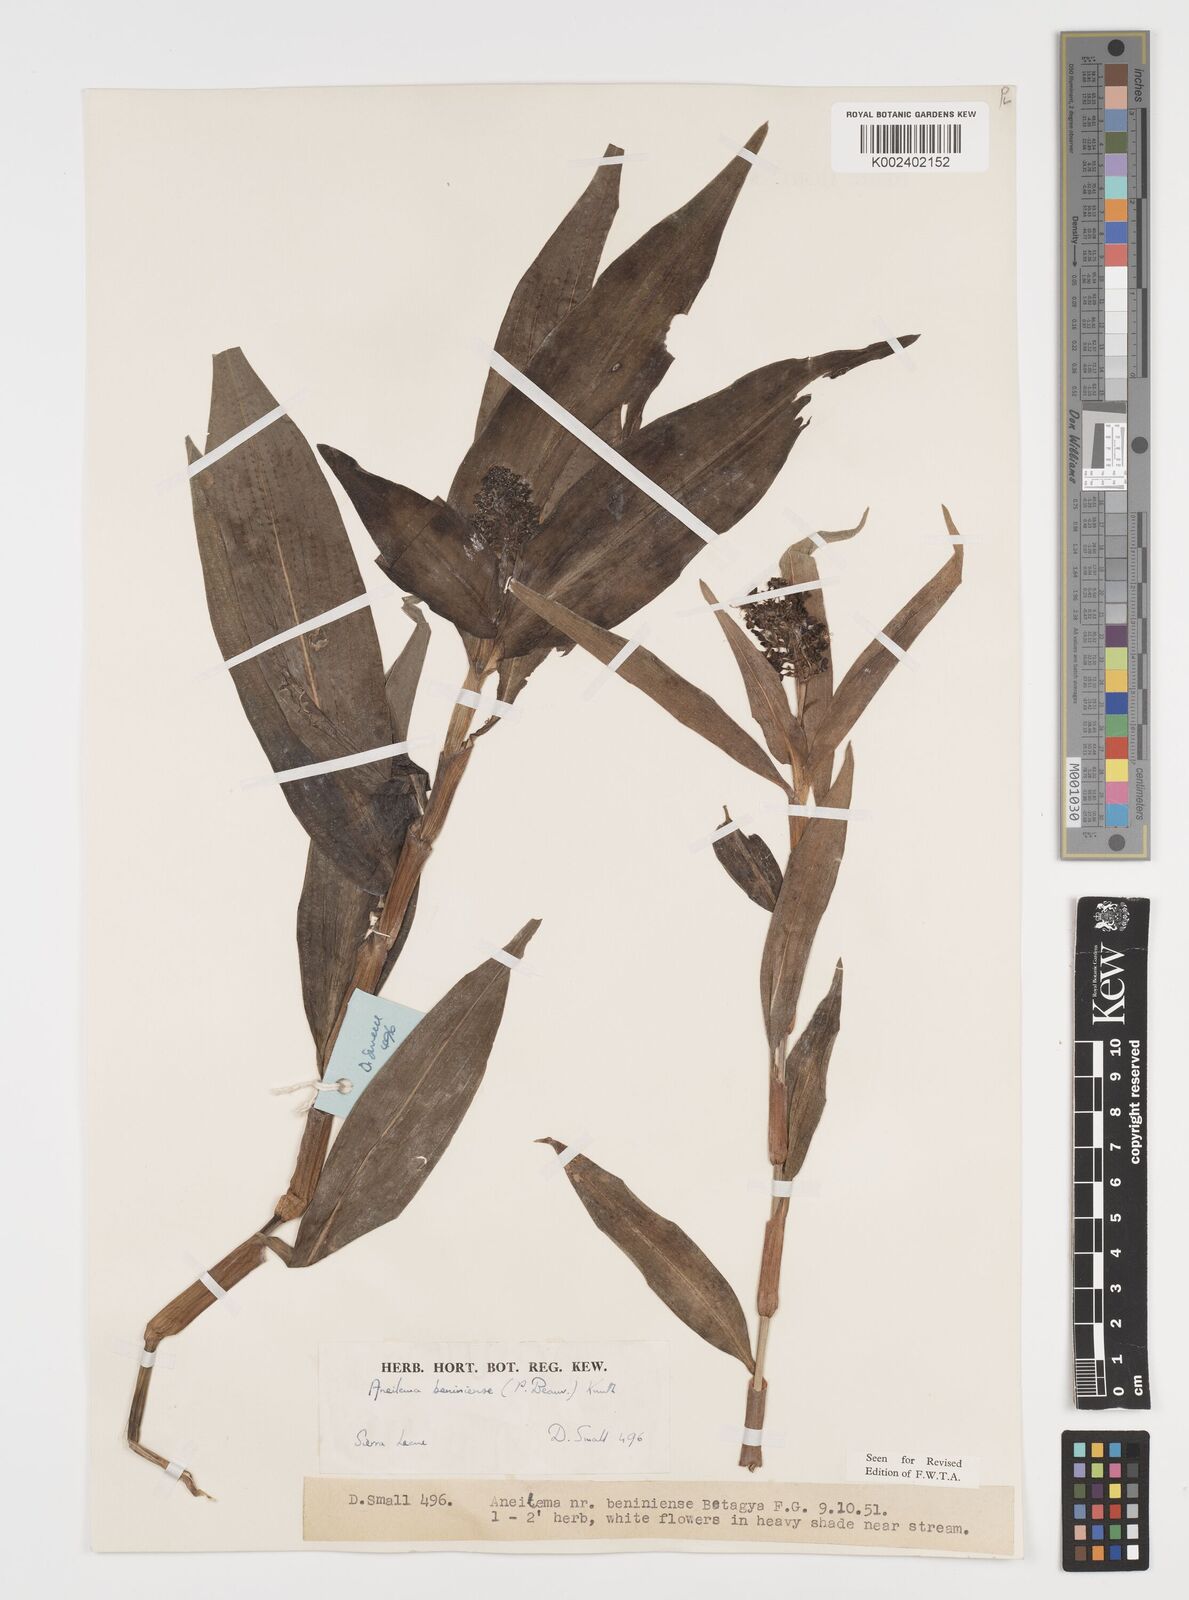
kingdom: Plantae
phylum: Tracheophyta
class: Liliopsida
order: Commelinales
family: Commelinaceae
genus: Aneilema
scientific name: Aneilema beniniense
